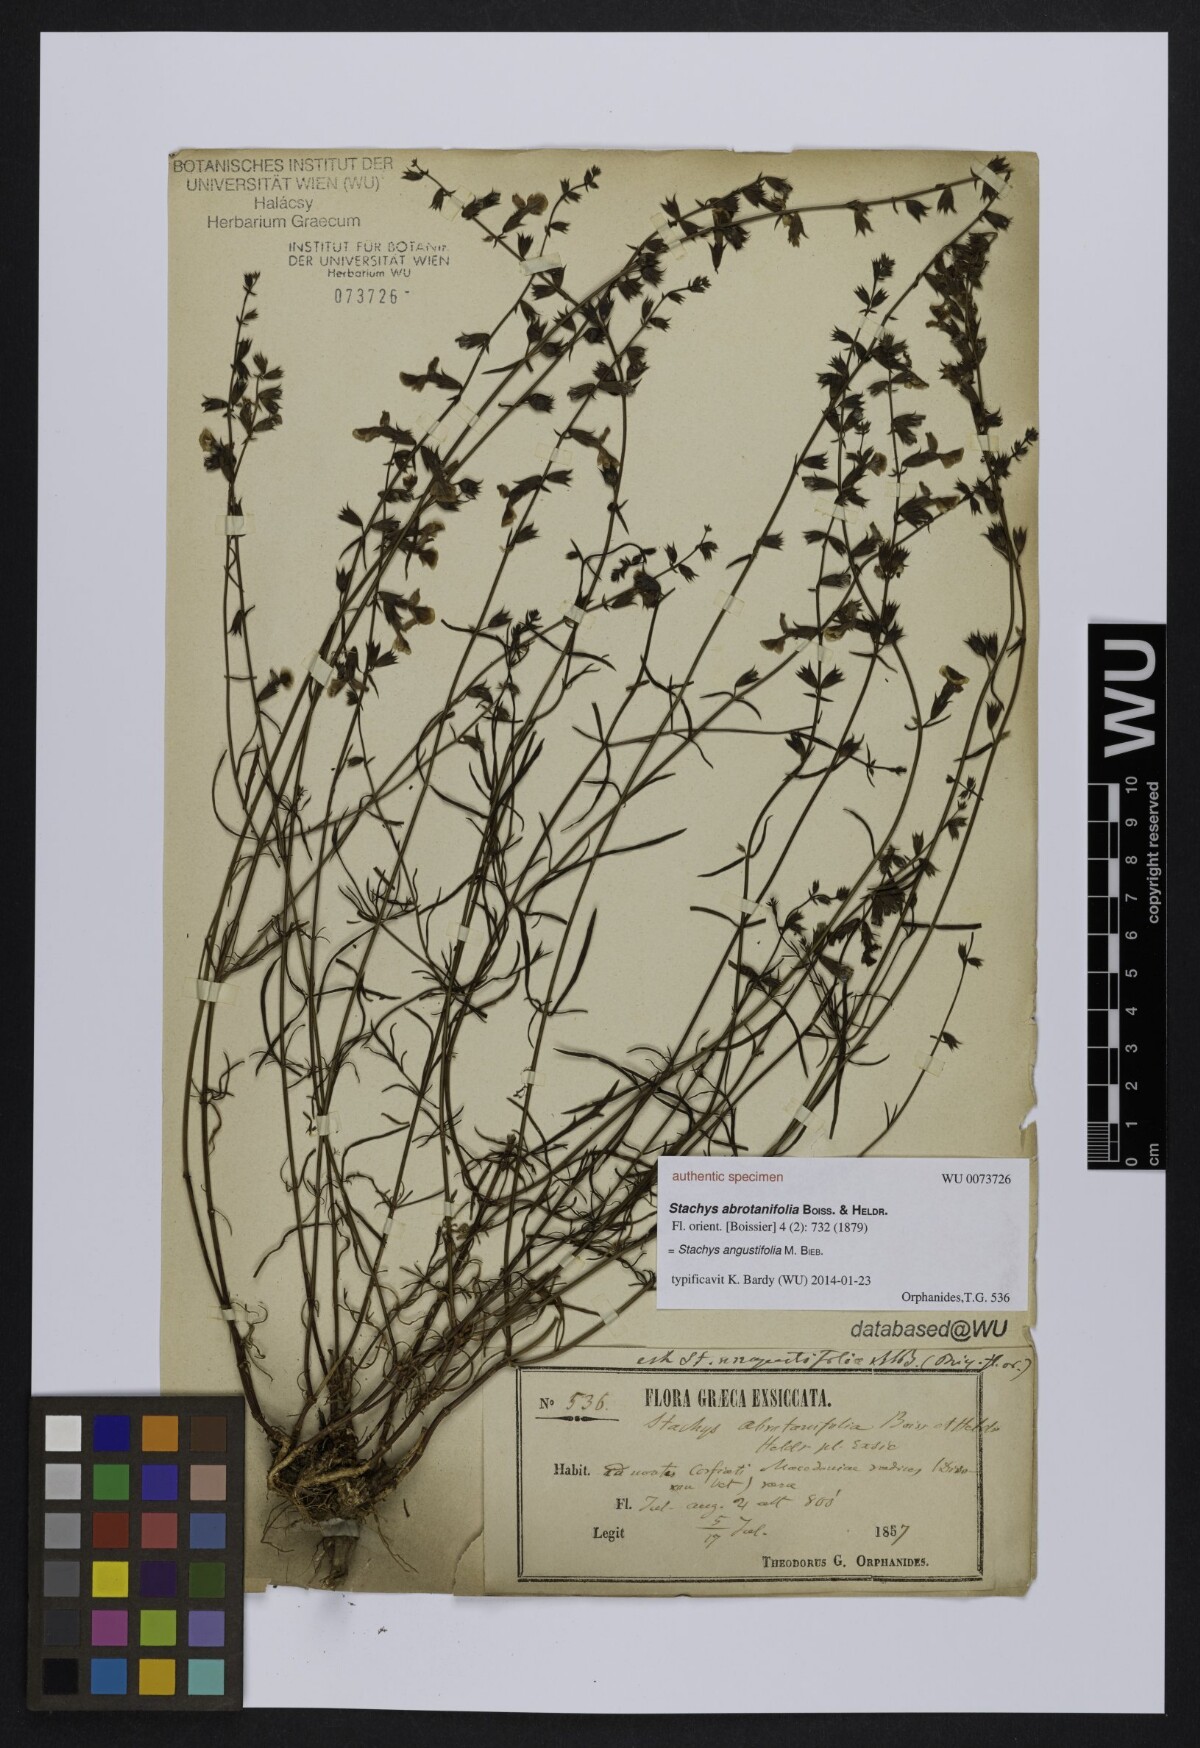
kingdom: Plantae
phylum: Tracheophyta
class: Magnoliopsida
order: Lamiales
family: Lamiaceae
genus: Stachys
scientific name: Stachys angustifolia
